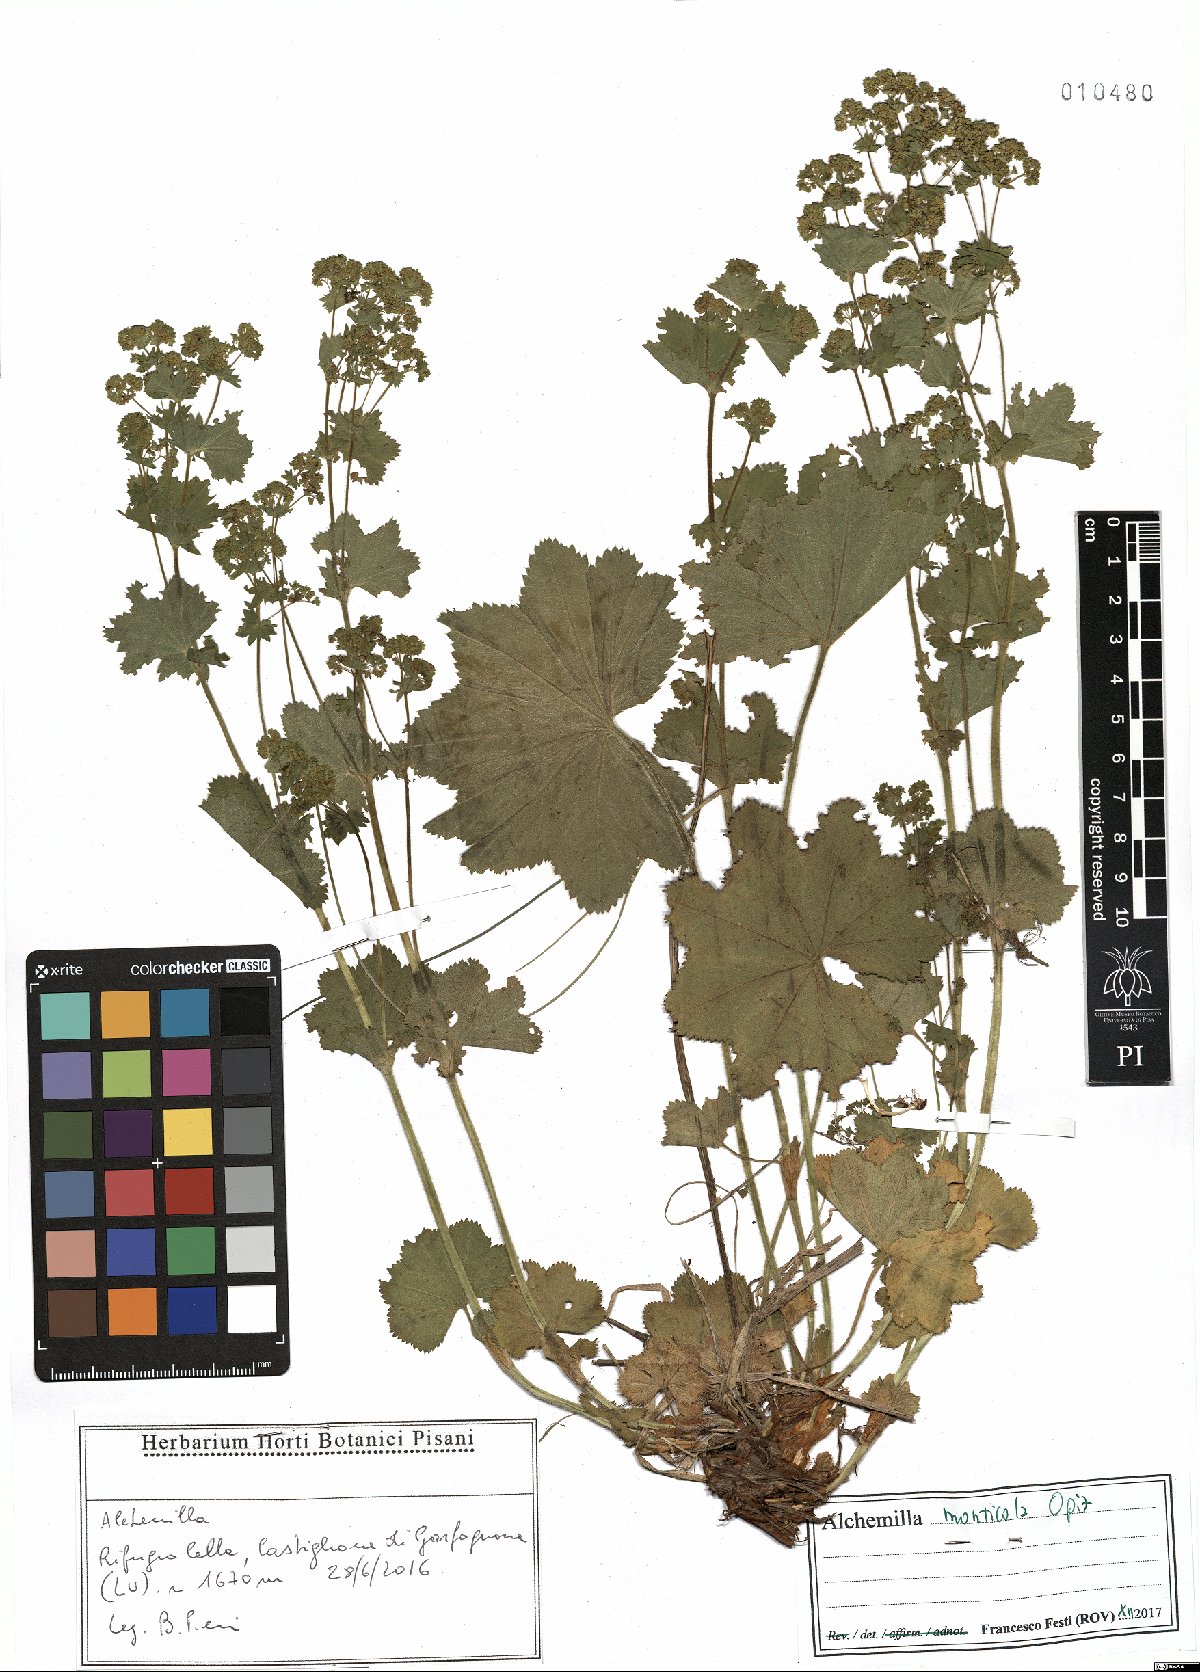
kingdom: Plantae
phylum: Tracheophyta
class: Magnoliopsida
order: Rosales
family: Rosaceae
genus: Alchemilla
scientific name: Alchemilla monticola
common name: Hairy lady's mantle
